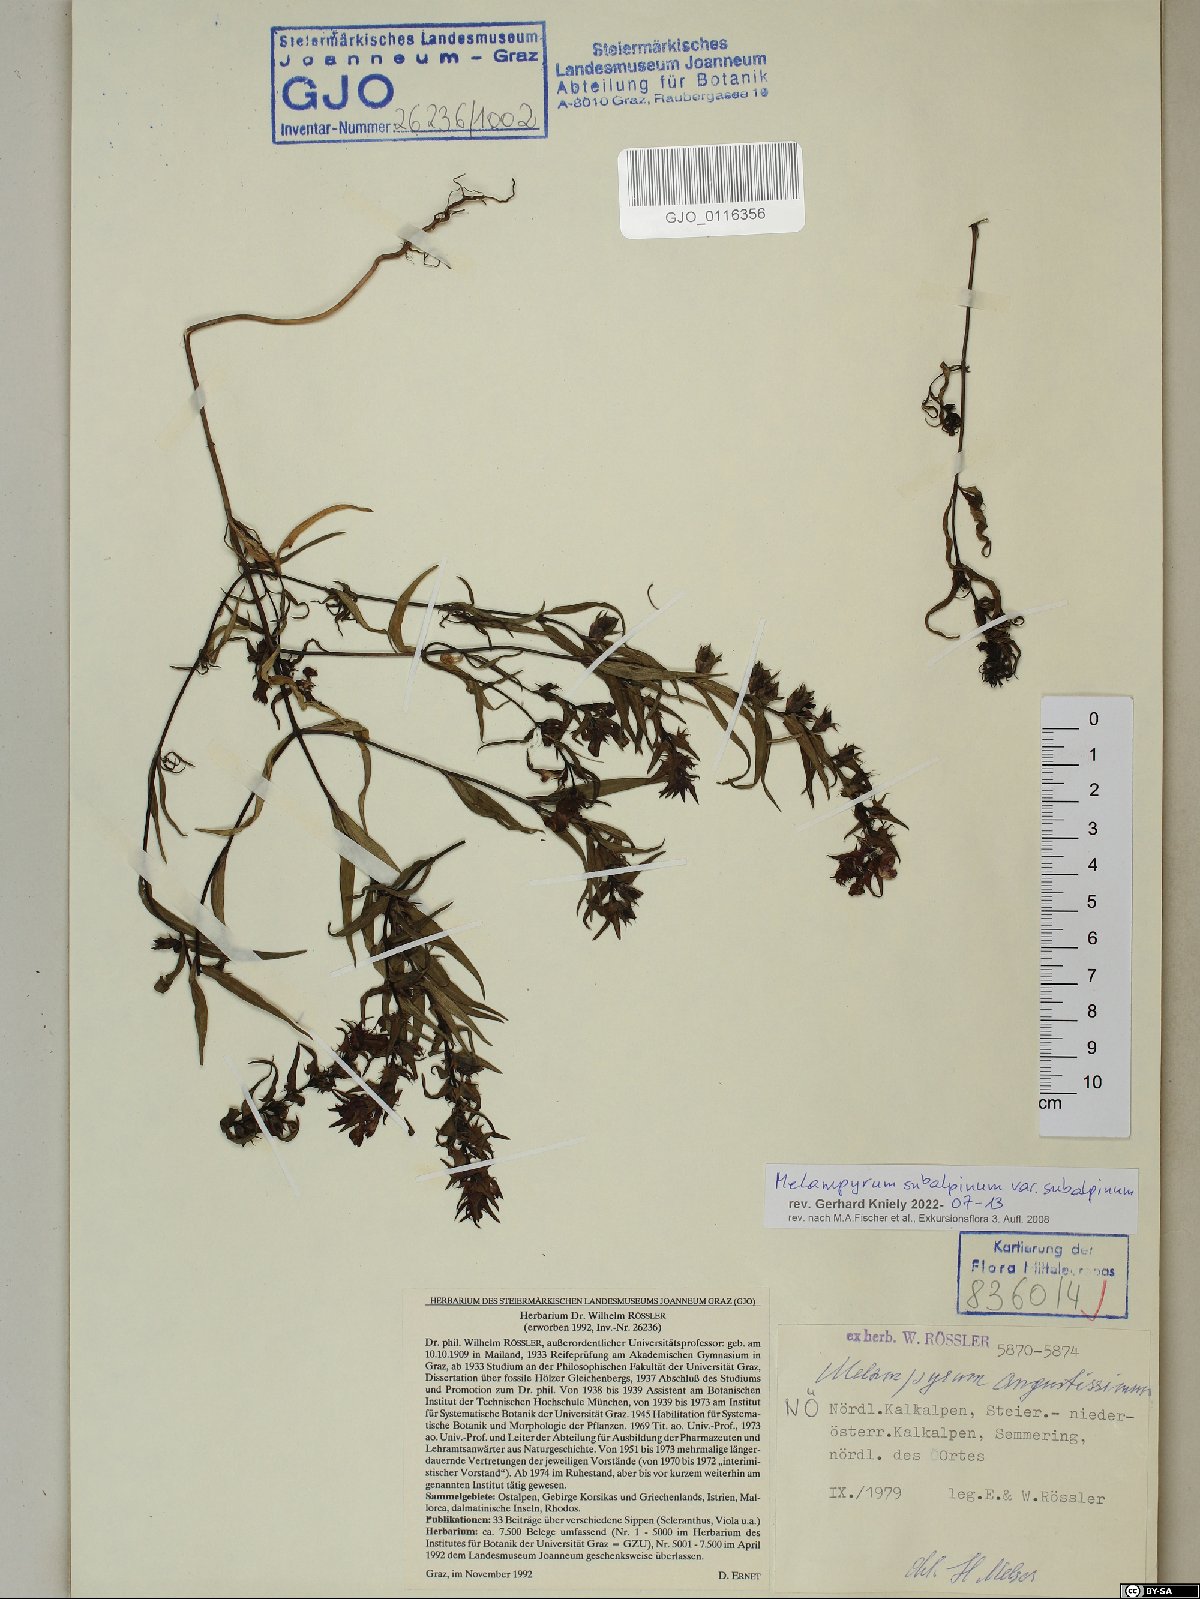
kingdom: Plantae
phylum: Tracheophyta
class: Magnoliopsida
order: Lamiales
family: Orobanchaceae
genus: Melampyrum
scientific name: Melampyrum subalpinum
